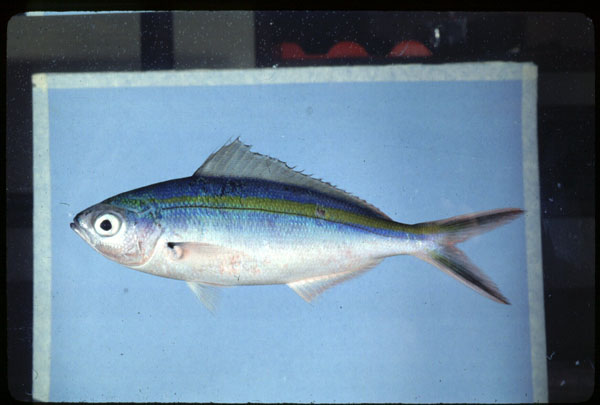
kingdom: Animalia
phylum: Chordata
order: Perciformes
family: Caesionidae
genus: Caesio
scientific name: Caesio caerulaurea
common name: Blue and gold fusilier
